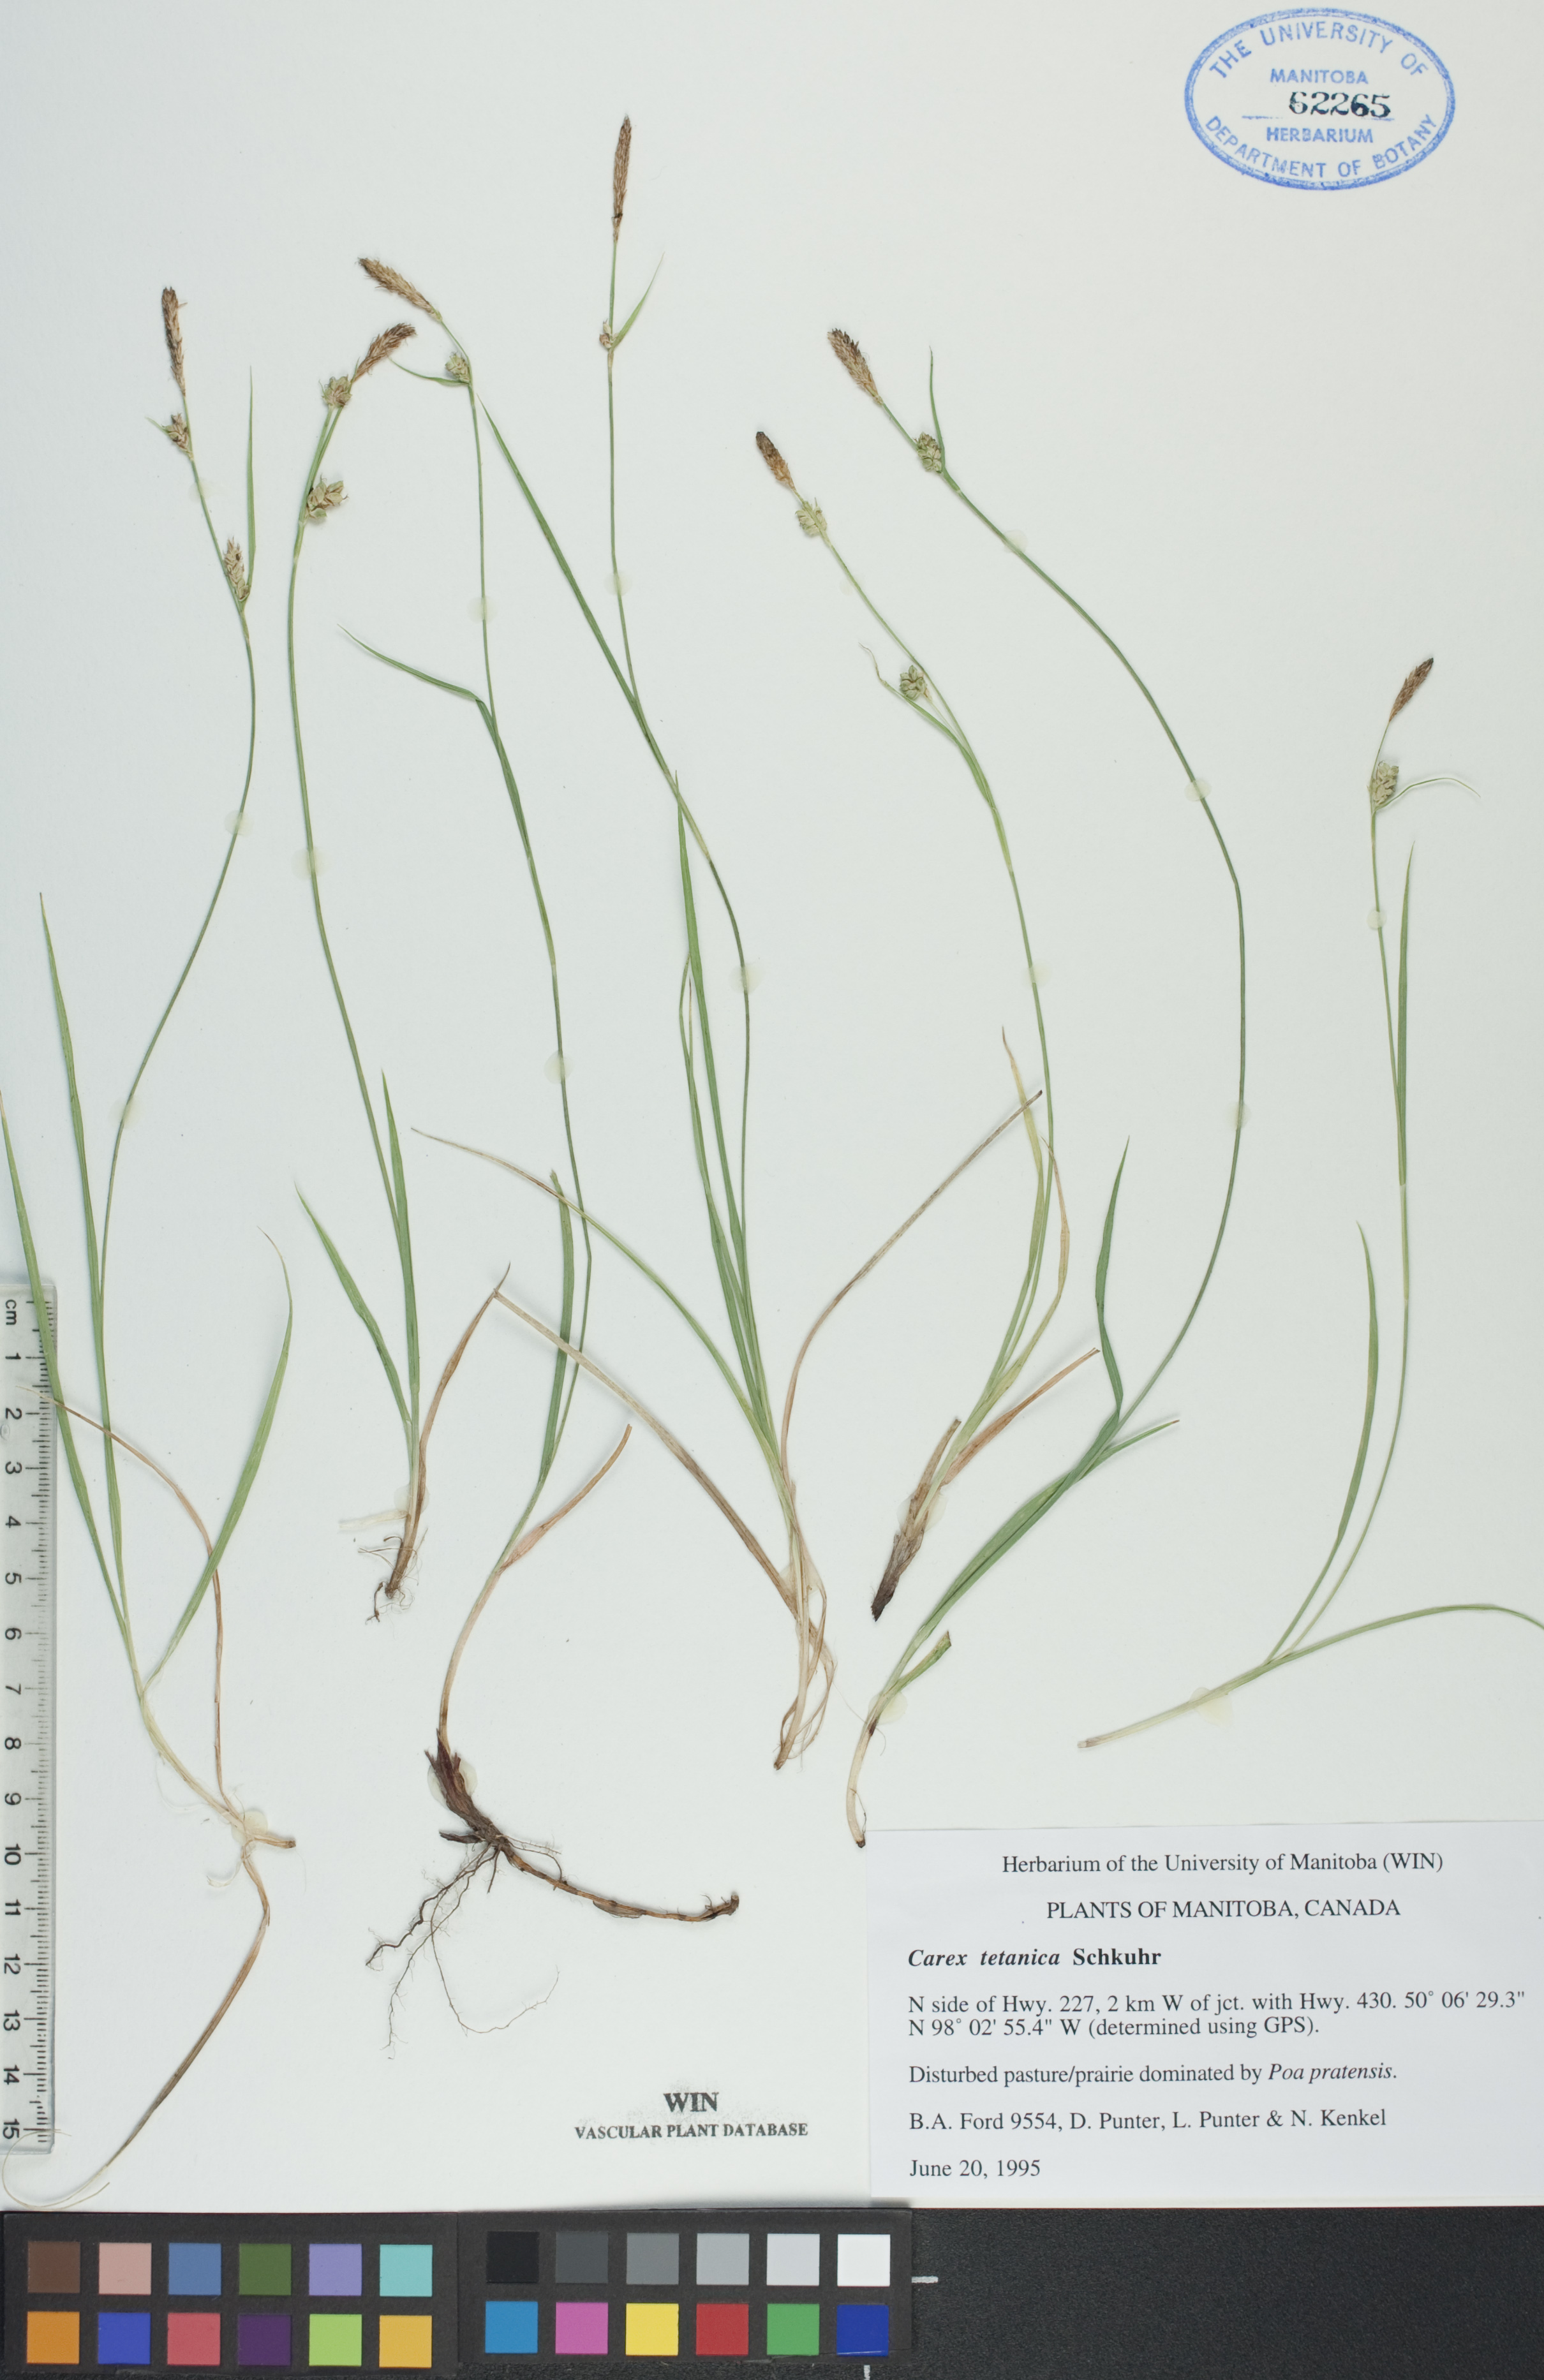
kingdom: Plantae
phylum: Tracheophyta
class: Liliopsida
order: Poales
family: Cyperaceae
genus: Carex
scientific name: Carex tetanica
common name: Rigid sedge
